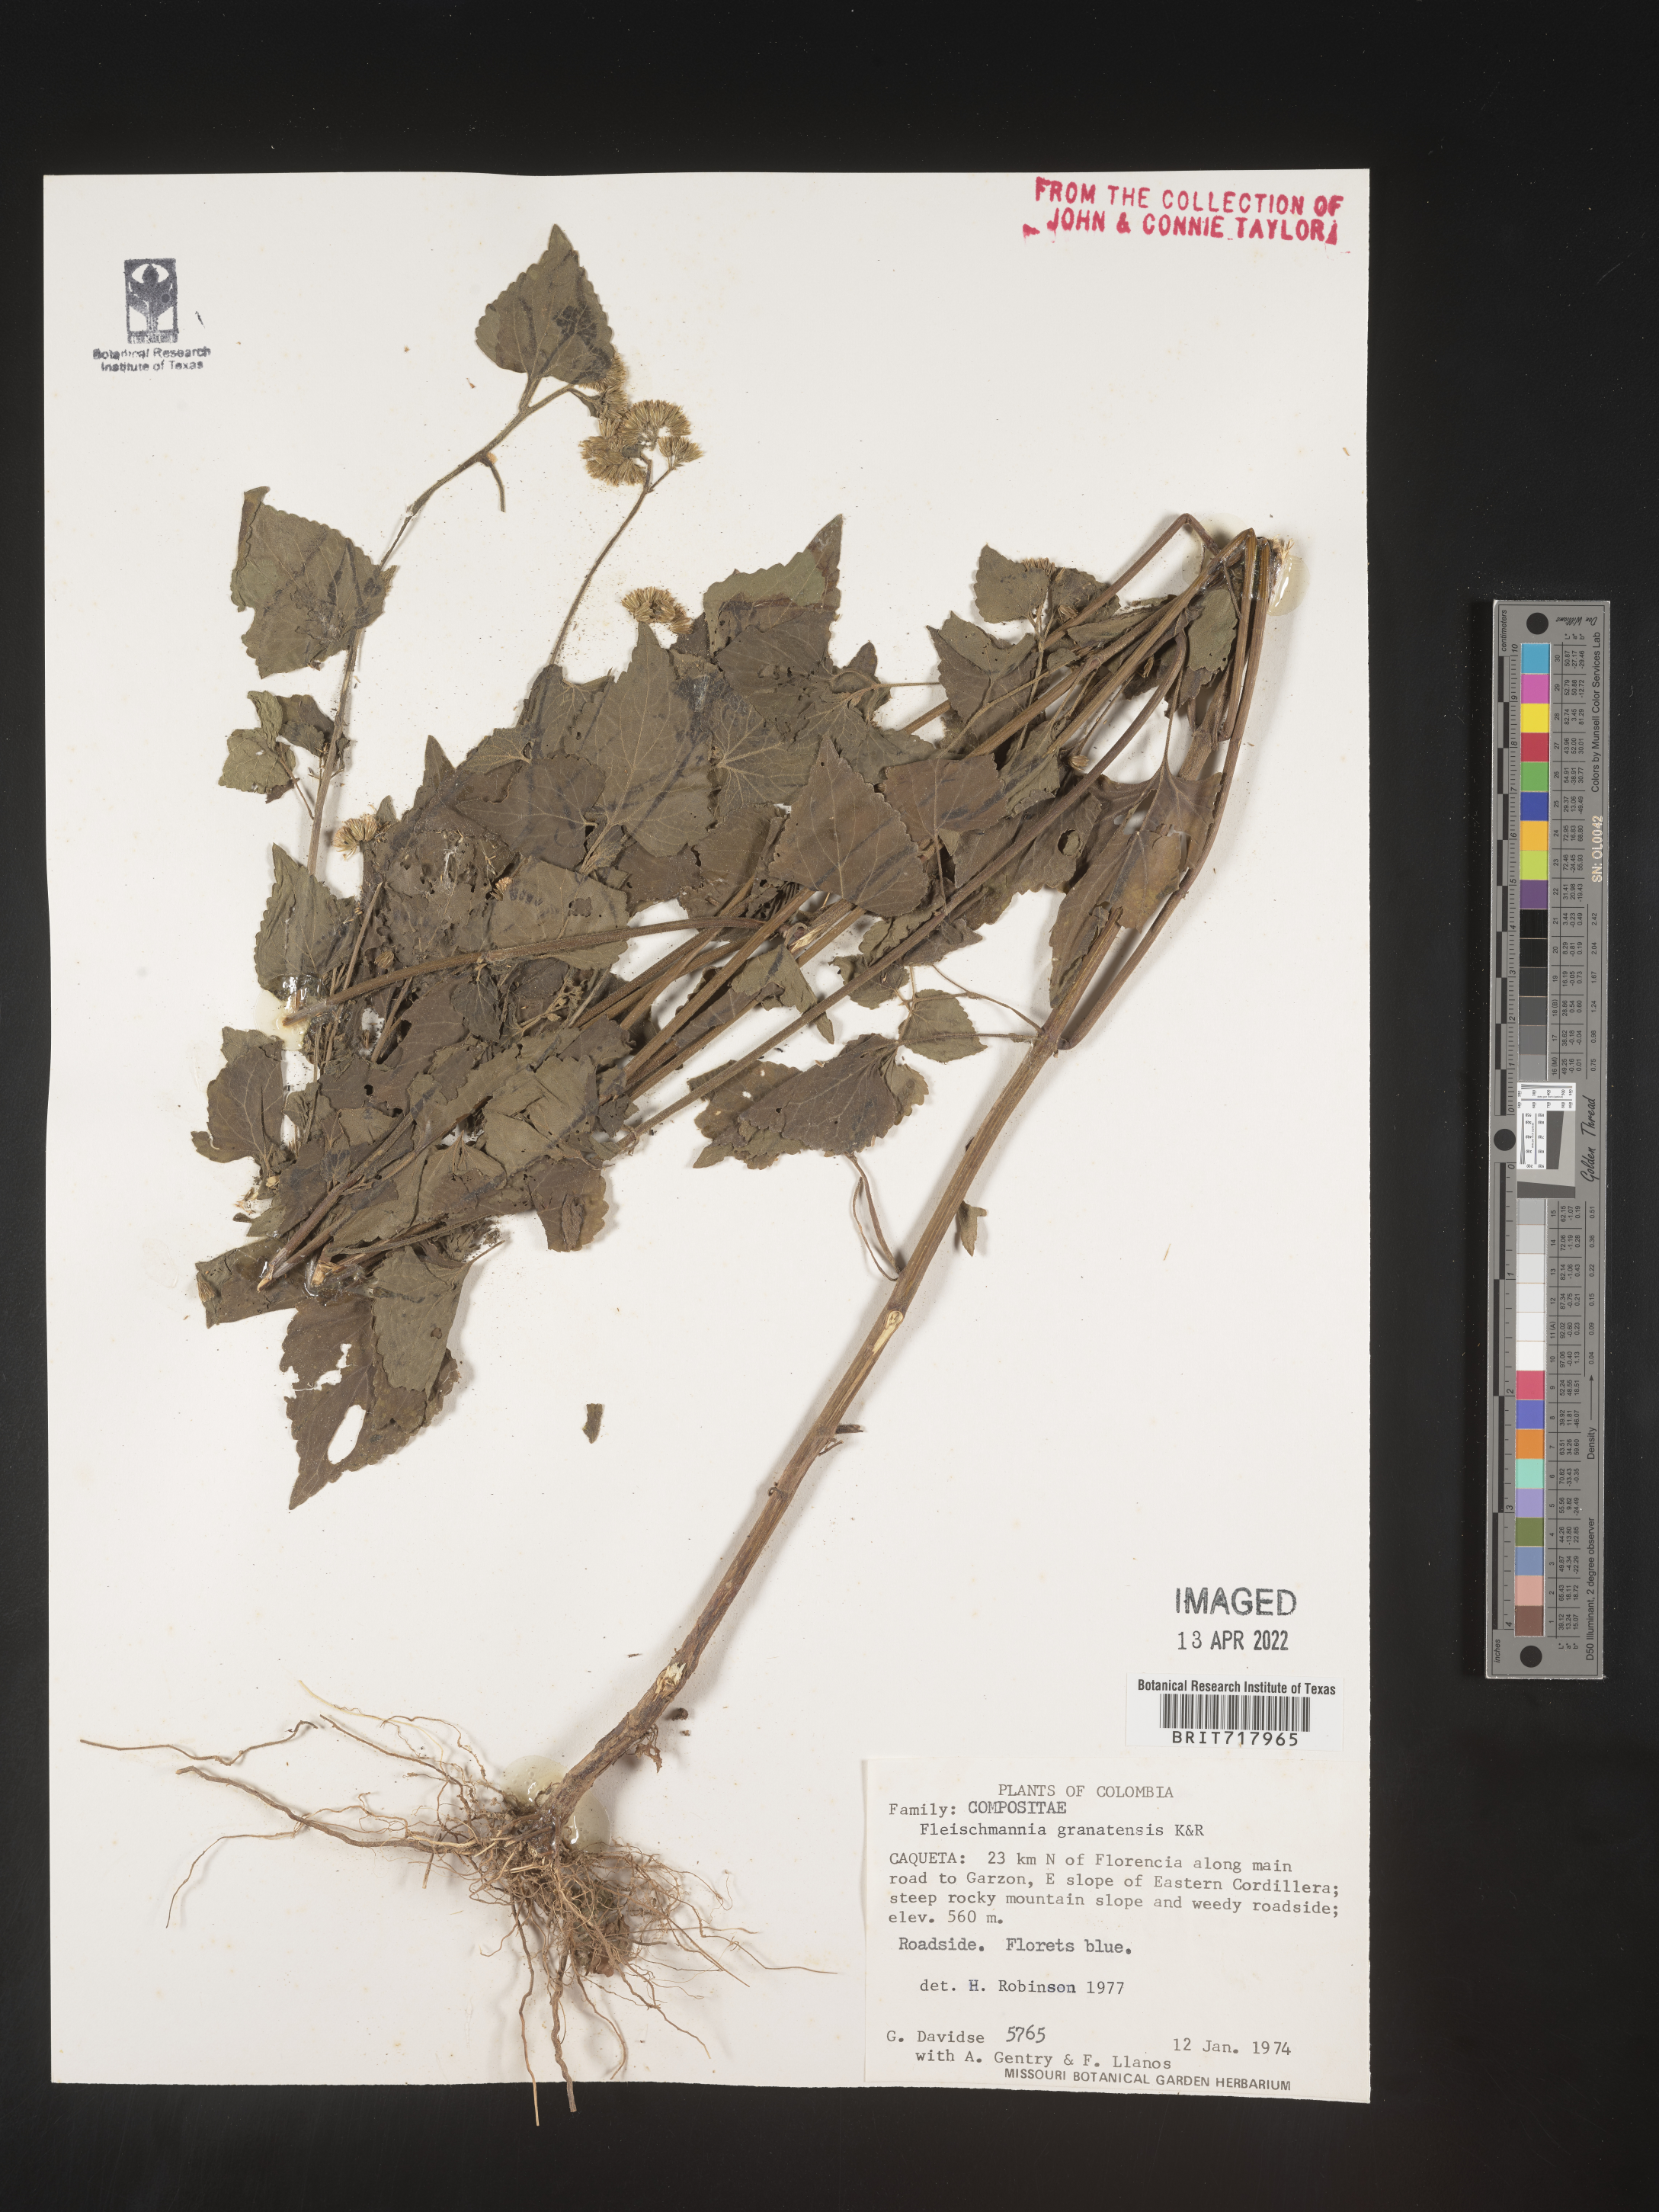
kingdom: Plantae
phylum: Tracheophyta
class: Magnoliopsida
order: Asterales
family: Asteraceae
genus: Fleischmannia
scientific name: Fleischmannia
